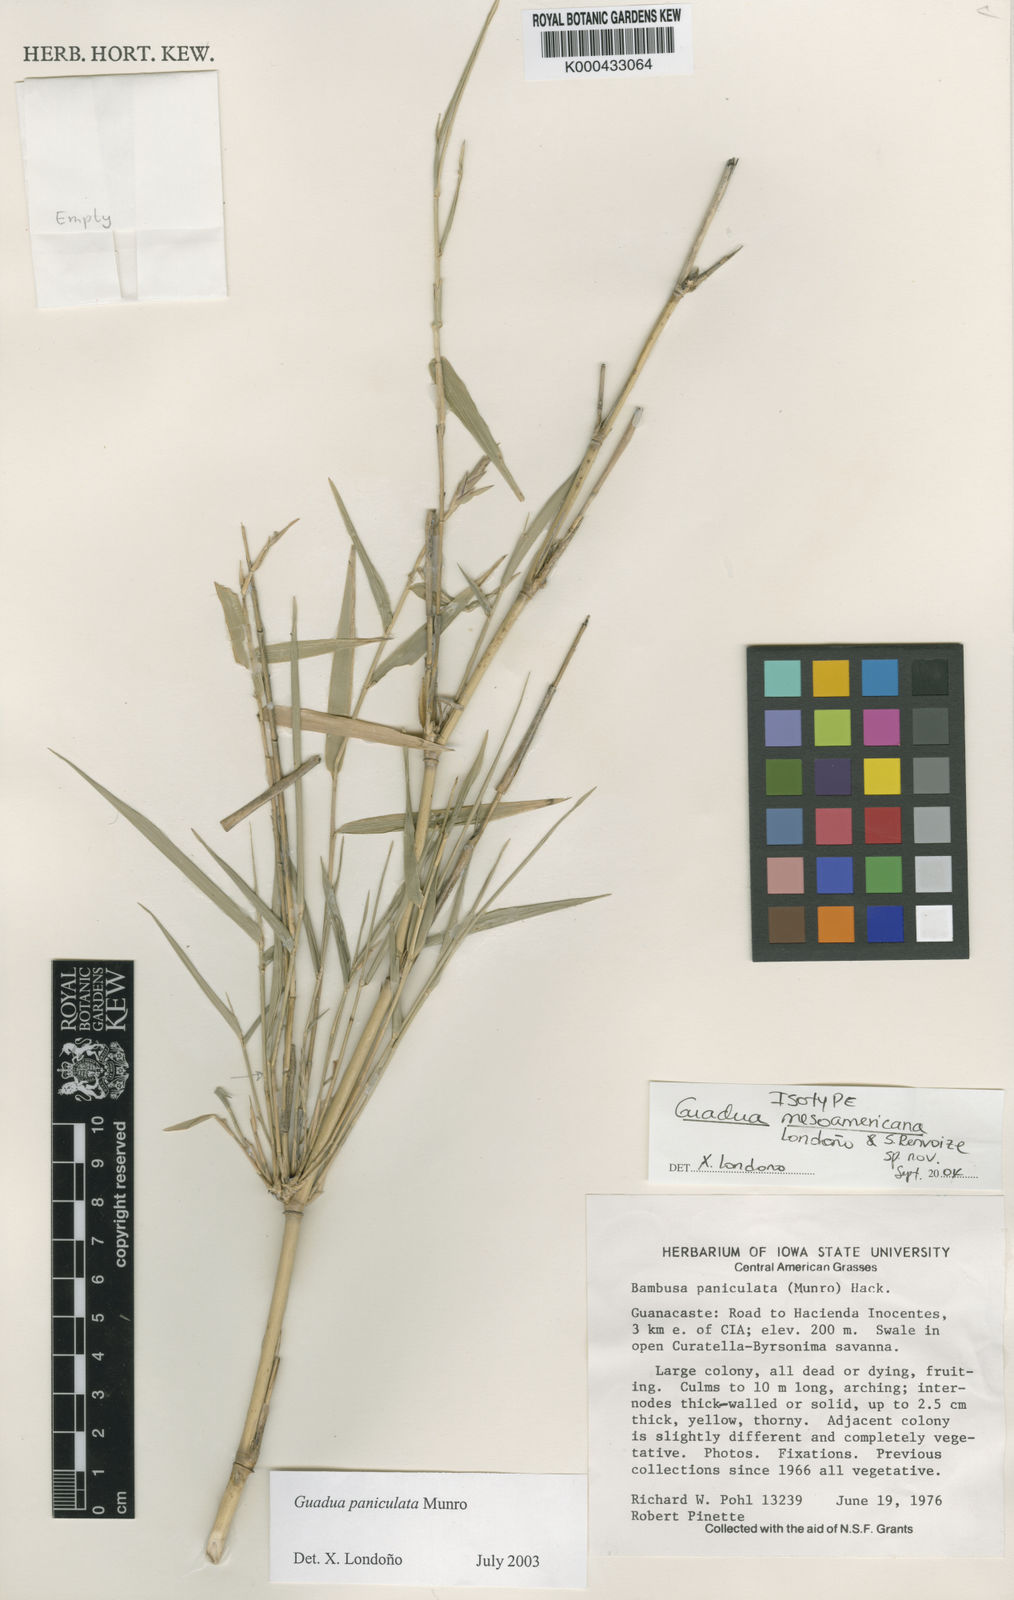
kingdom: Plantae
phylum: Tracheophyta
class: Liliopsida
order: Poales
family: Poaceae
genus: Guadua
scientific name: Guadua
